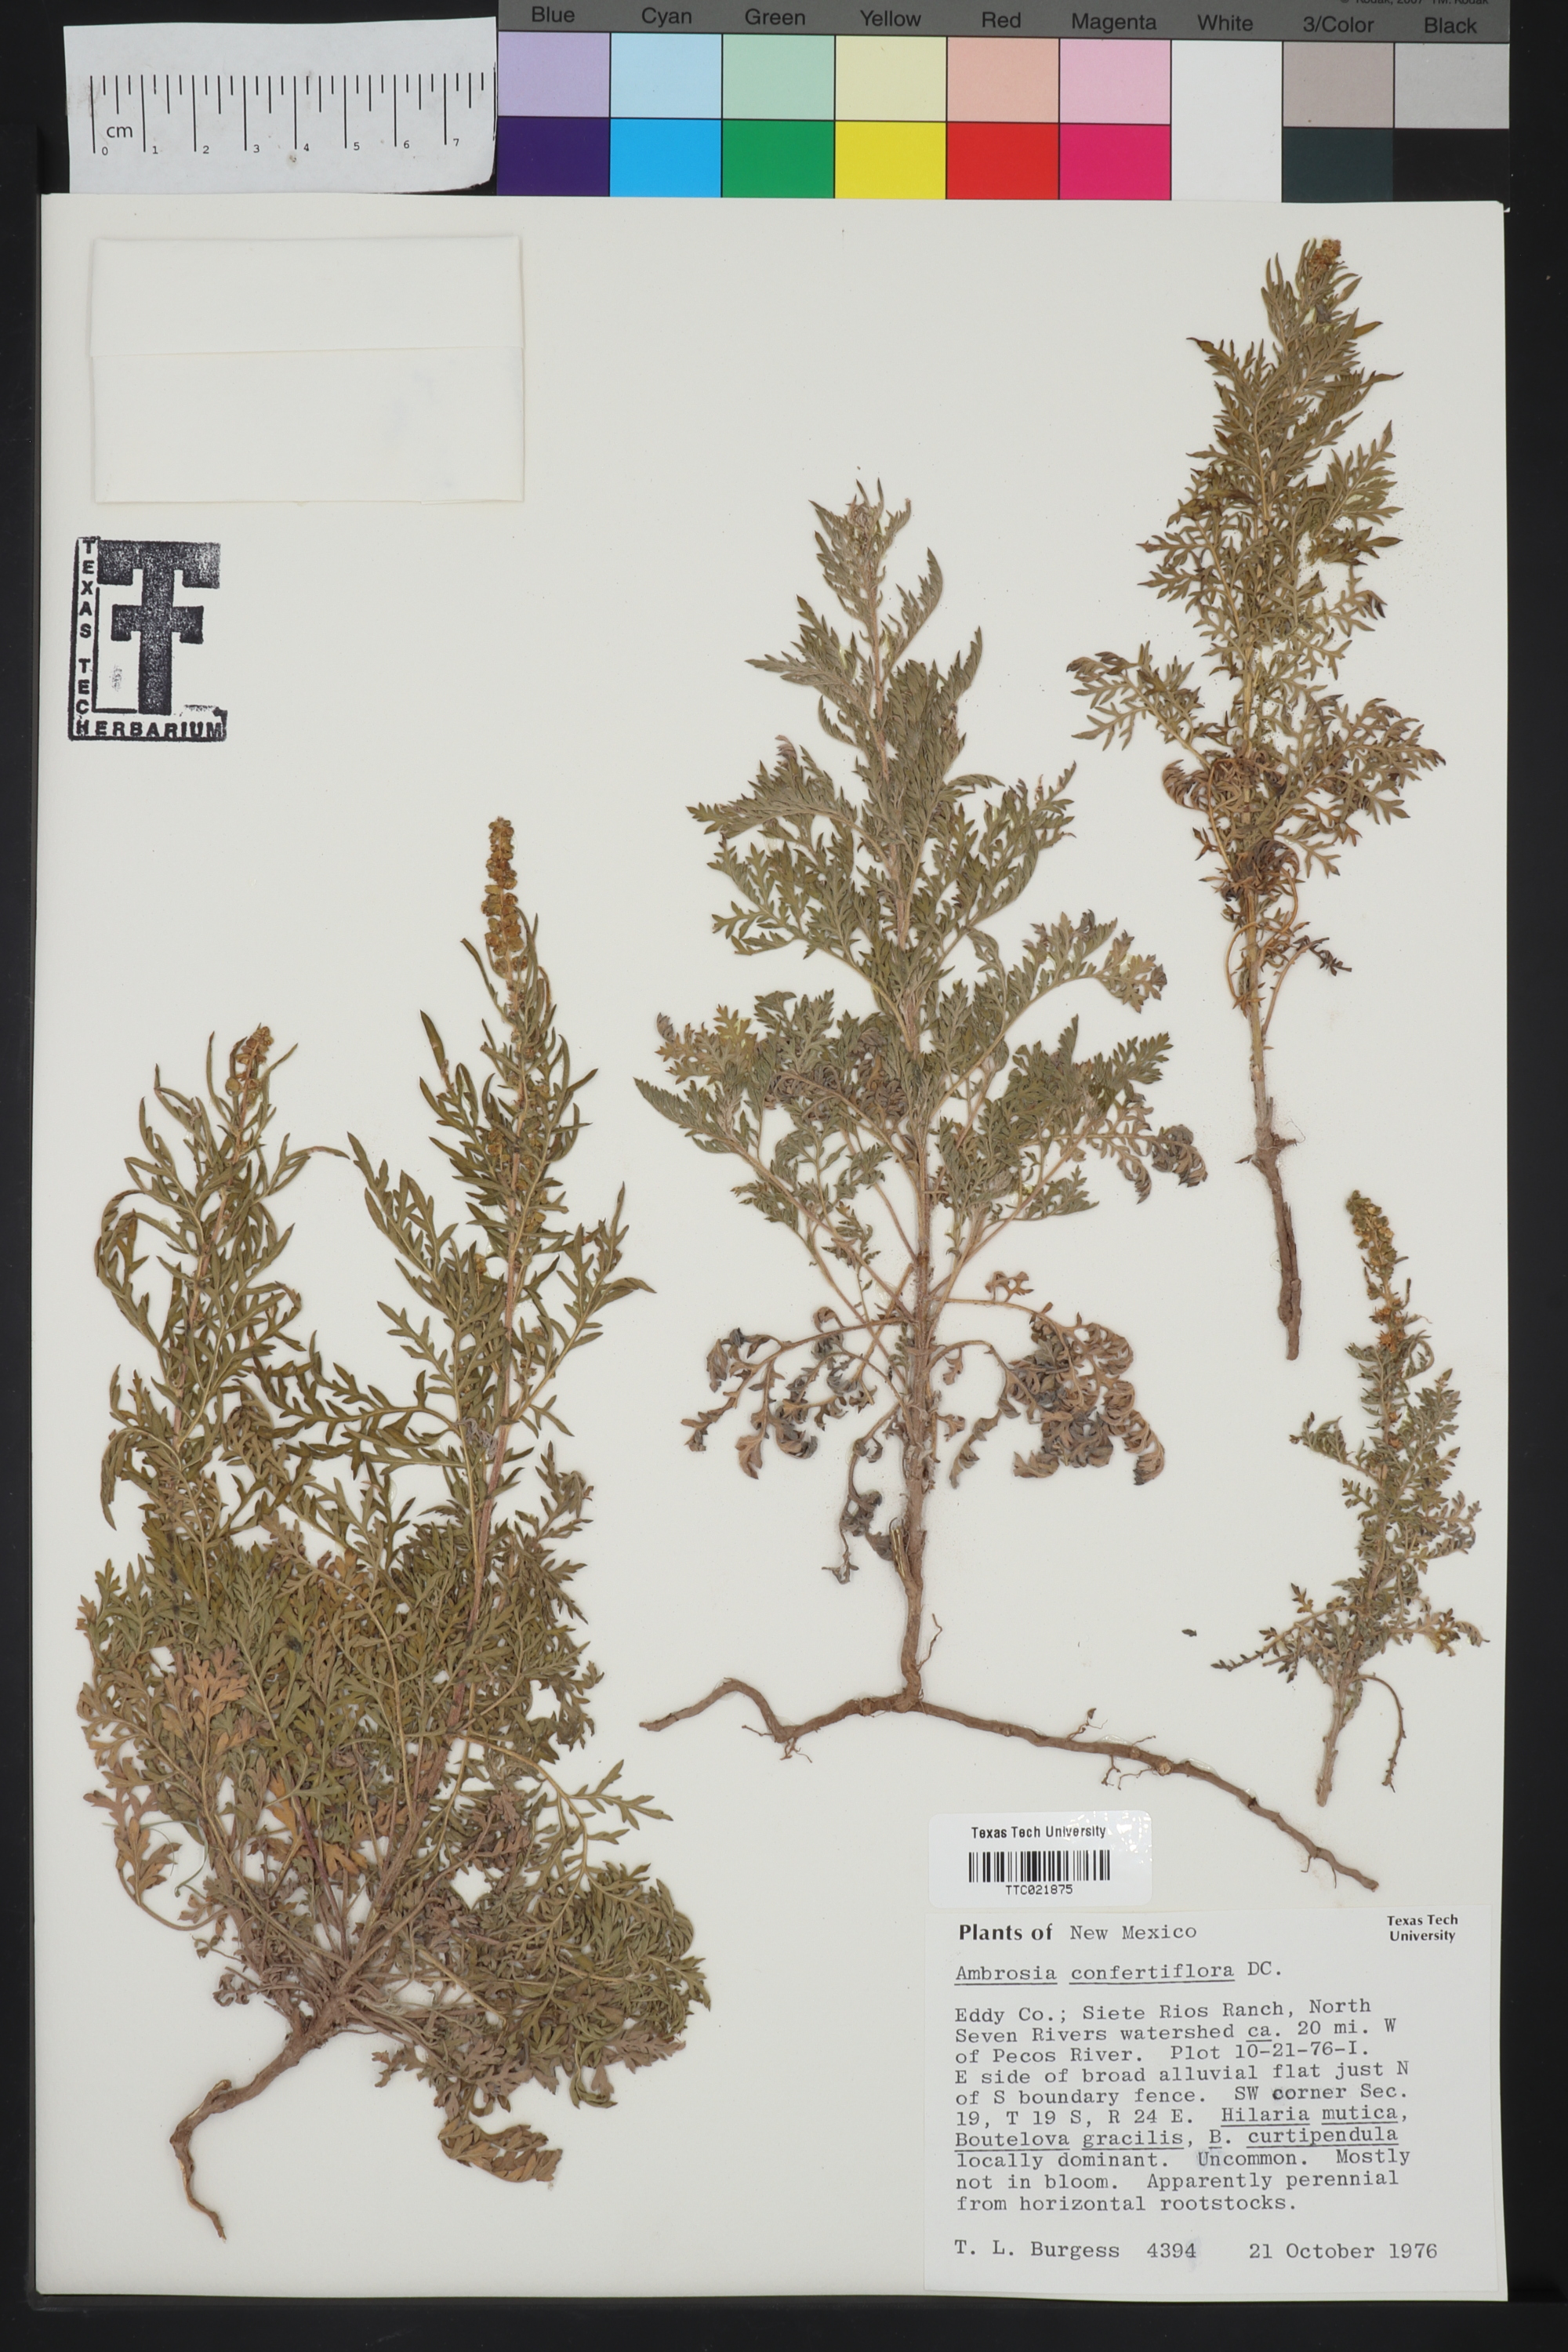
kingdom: Plantae
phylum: Tracheophyta
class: Magnoliopsida
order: Asterales
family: Asteraceae
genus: Ambrosia
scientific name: Ambrosia confertiflora
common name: Bur ragweed
